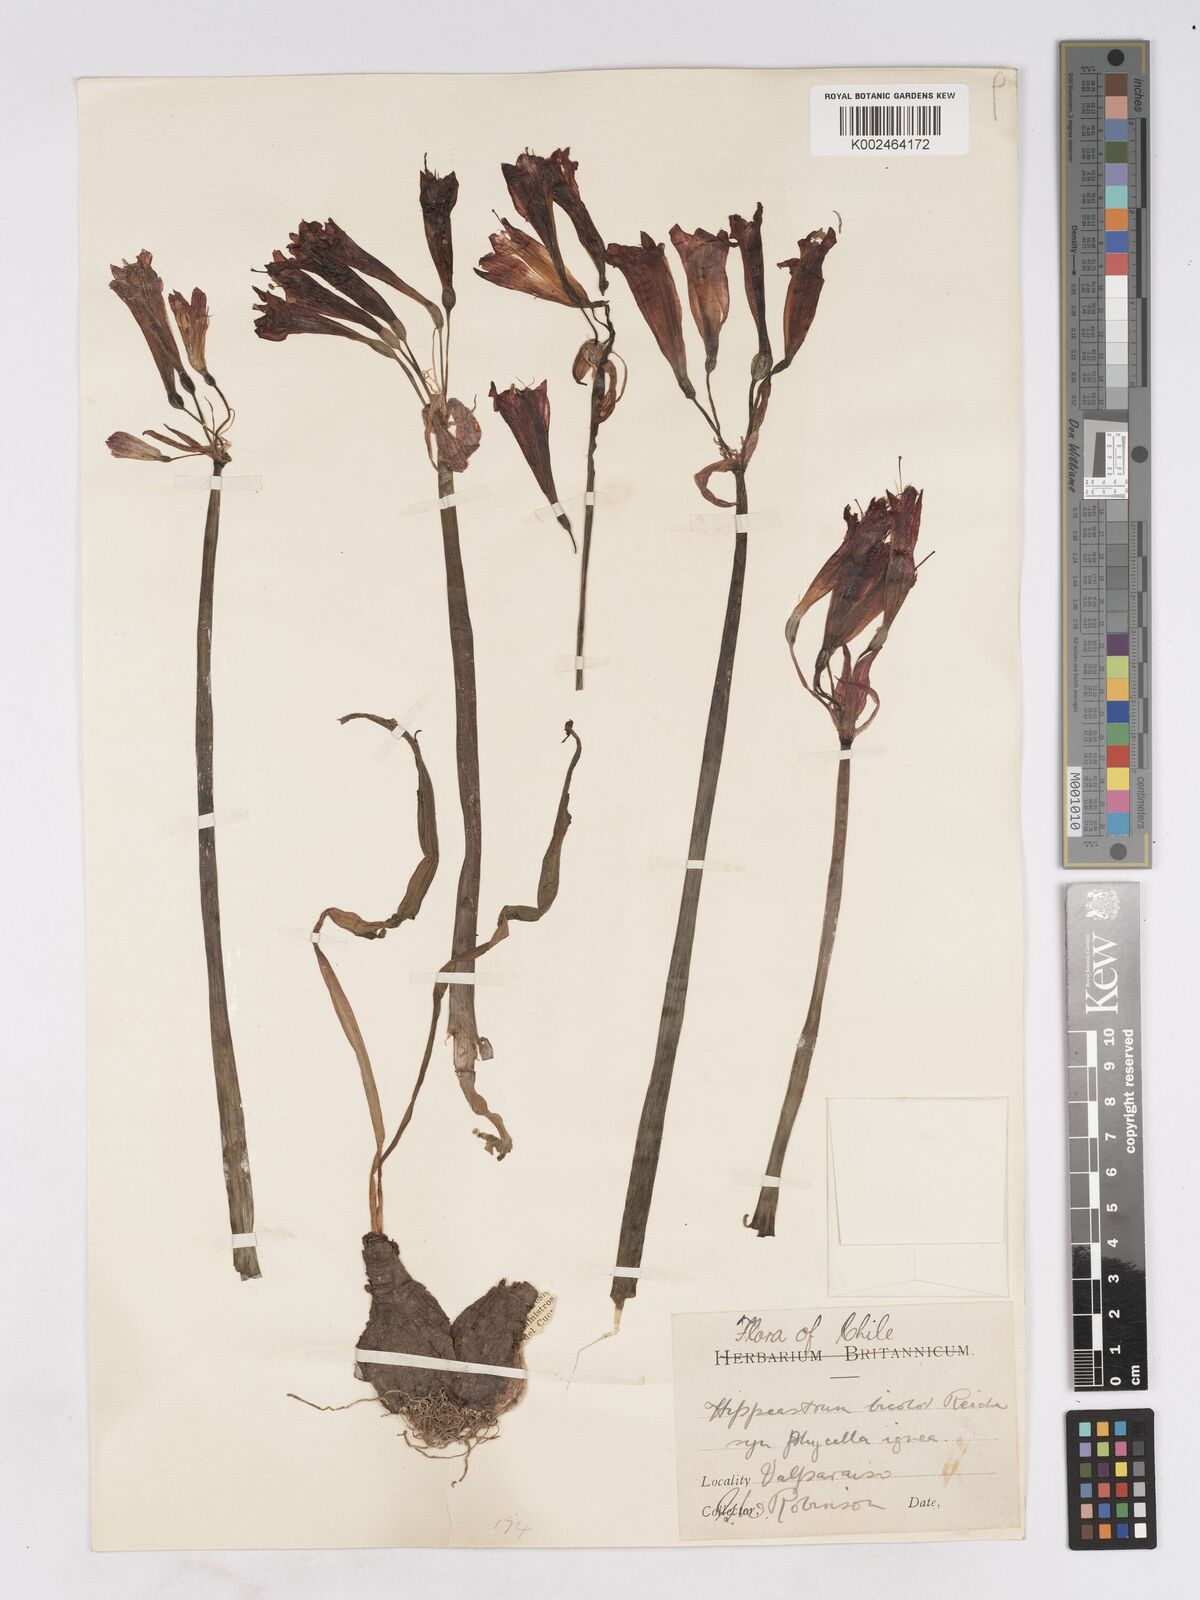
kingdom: Plantae
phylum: Tracheophyta
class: Liliopsida
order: Asparagales
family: Amaryllidaceae
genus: Eustephia
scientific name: Eustephia coccinea
